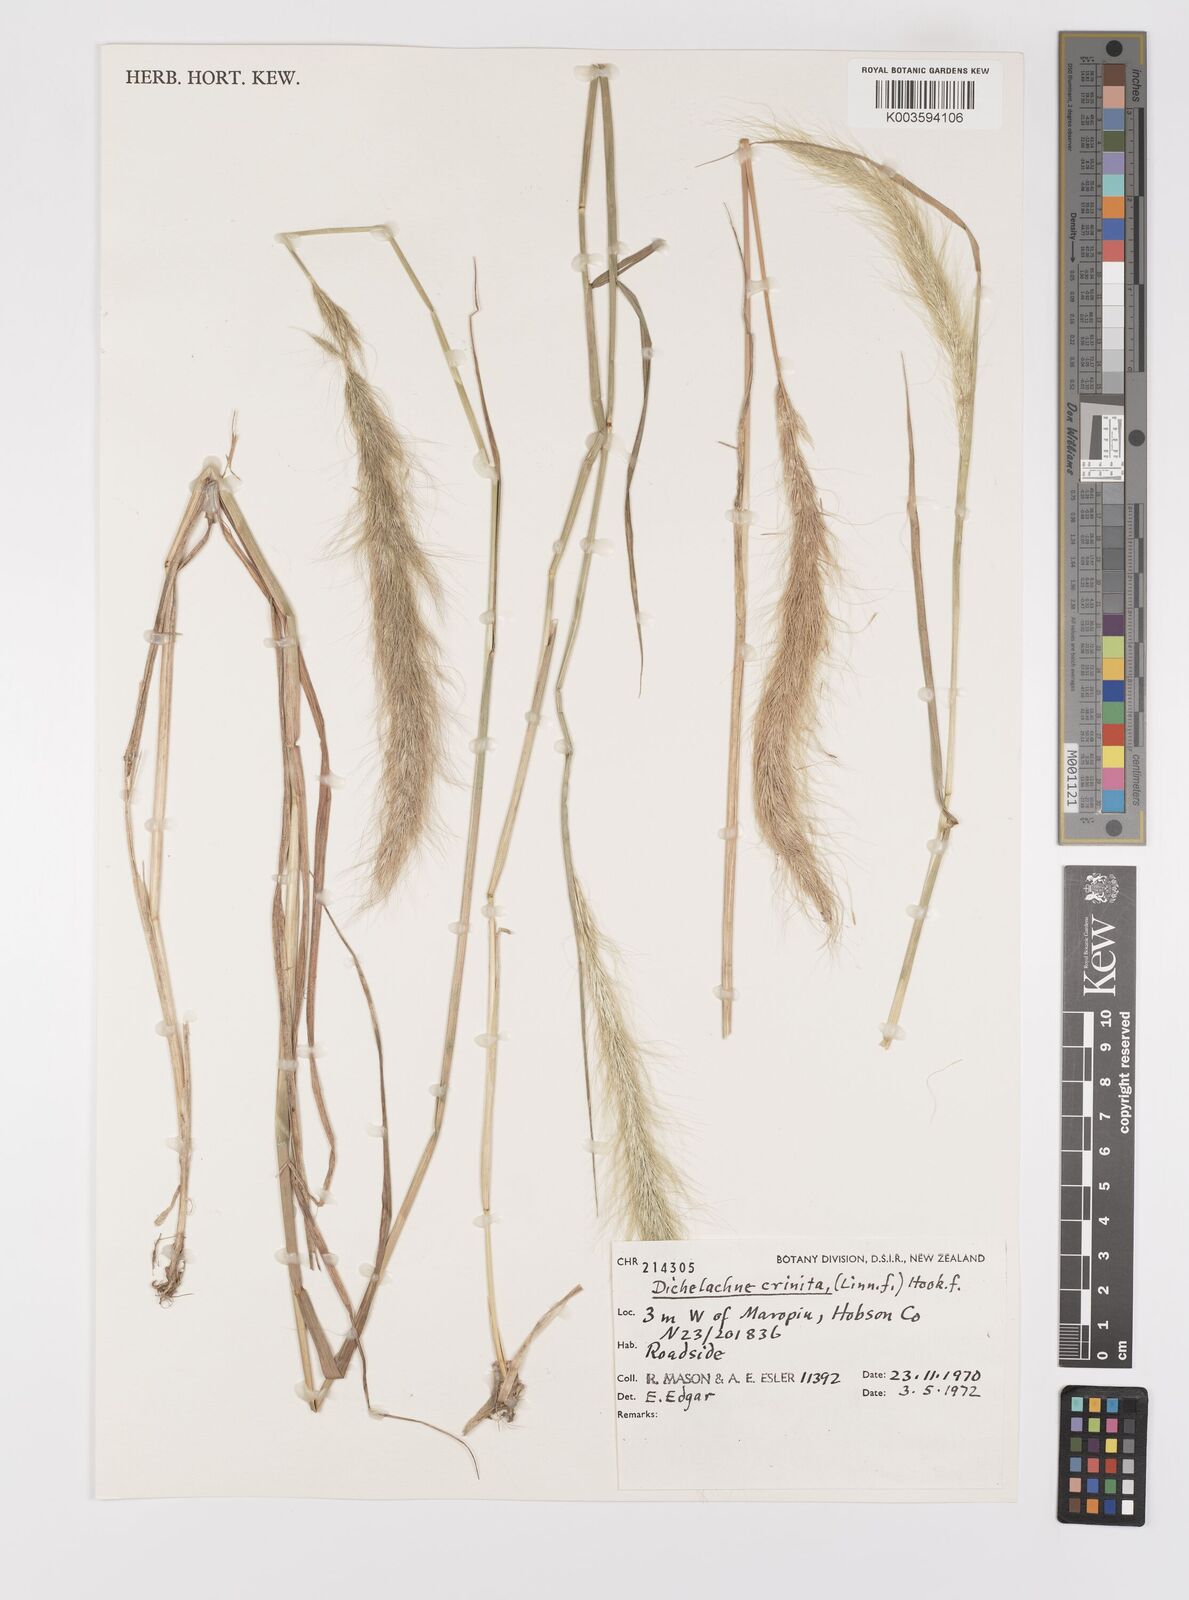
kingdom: Plantae
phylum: Tracheophyta
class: Liliopsida
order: Poales
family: Poaceae
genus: Dichelachne
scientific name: Dichelachne crinita
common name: Clovenfoot plumegrass
